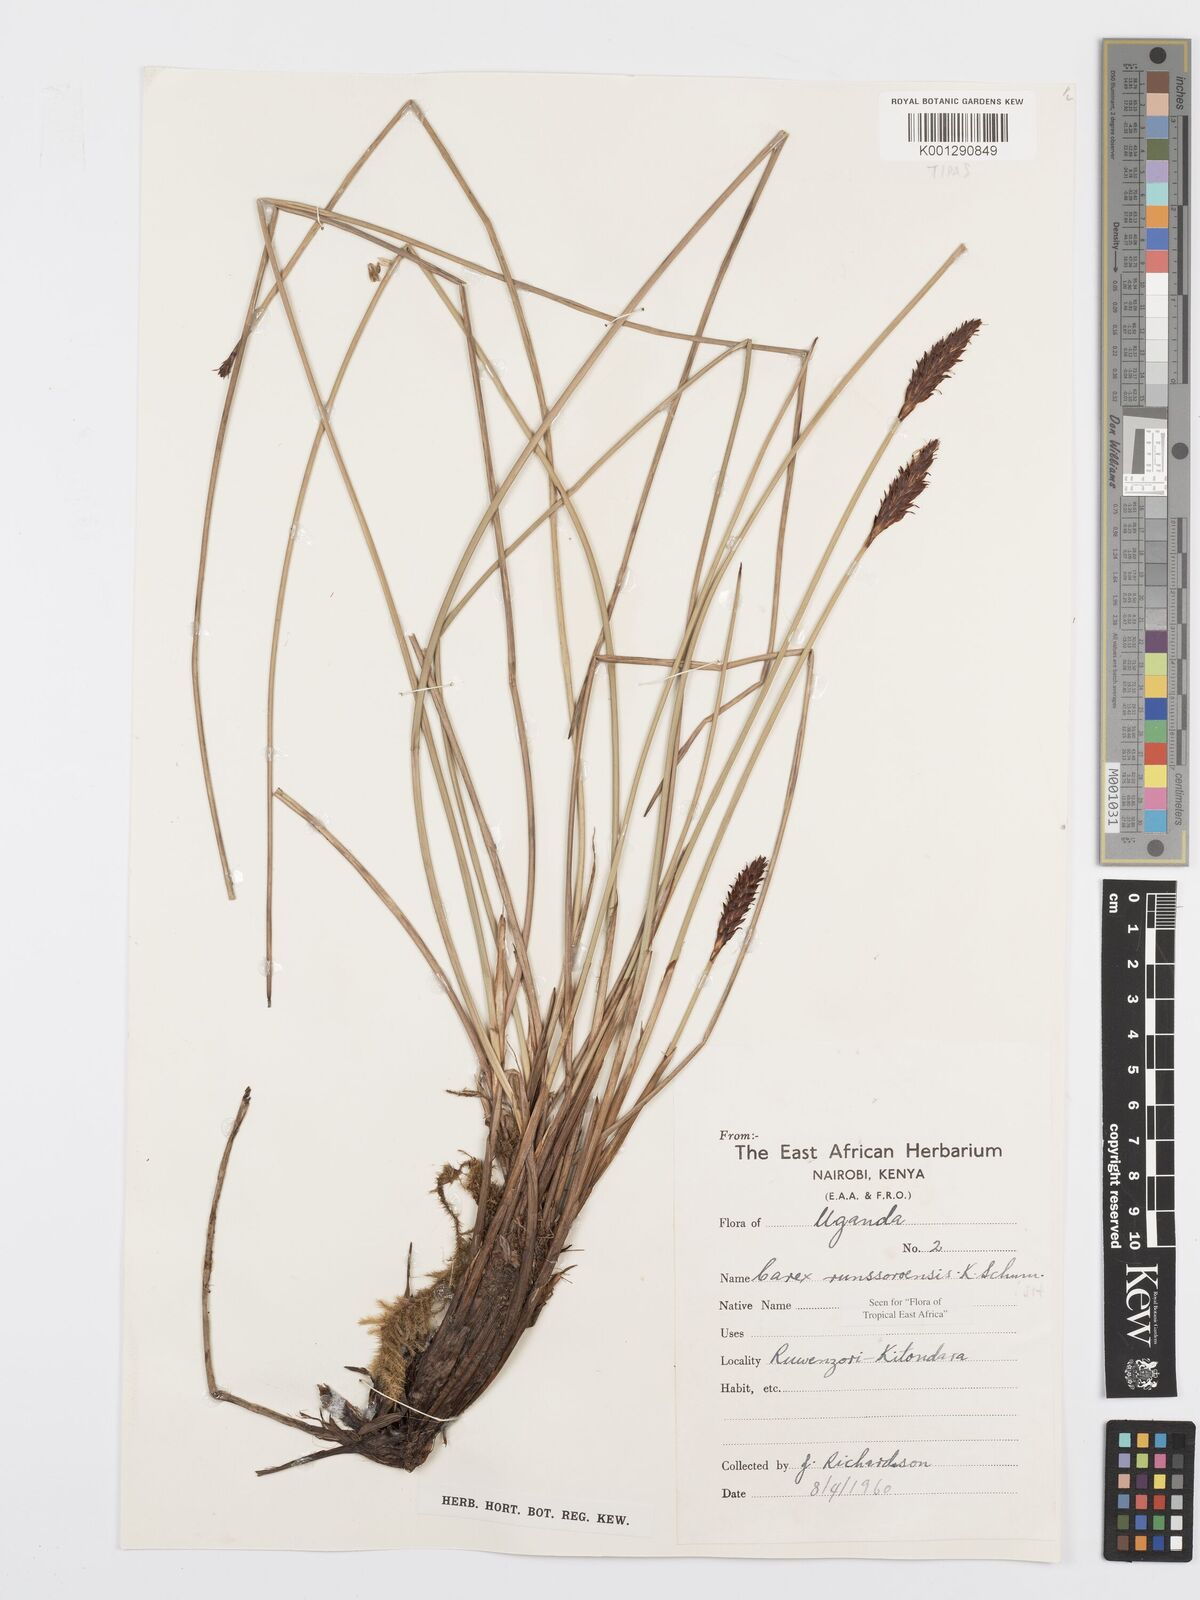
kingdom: Plantae
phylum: Tracheophyta
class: Liliopsida
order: Poales
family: Cyperaceae
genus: Carex
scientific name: Carex runssoroensis
